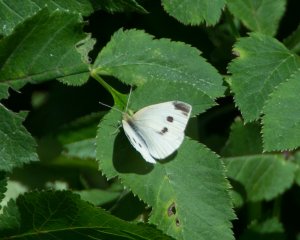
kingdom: Animalia
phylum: Arthropoda
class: Insecta
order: Lepidoptera
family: Pieridae
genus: Pieris
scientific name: Pieris rapae
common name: Cabbage White
